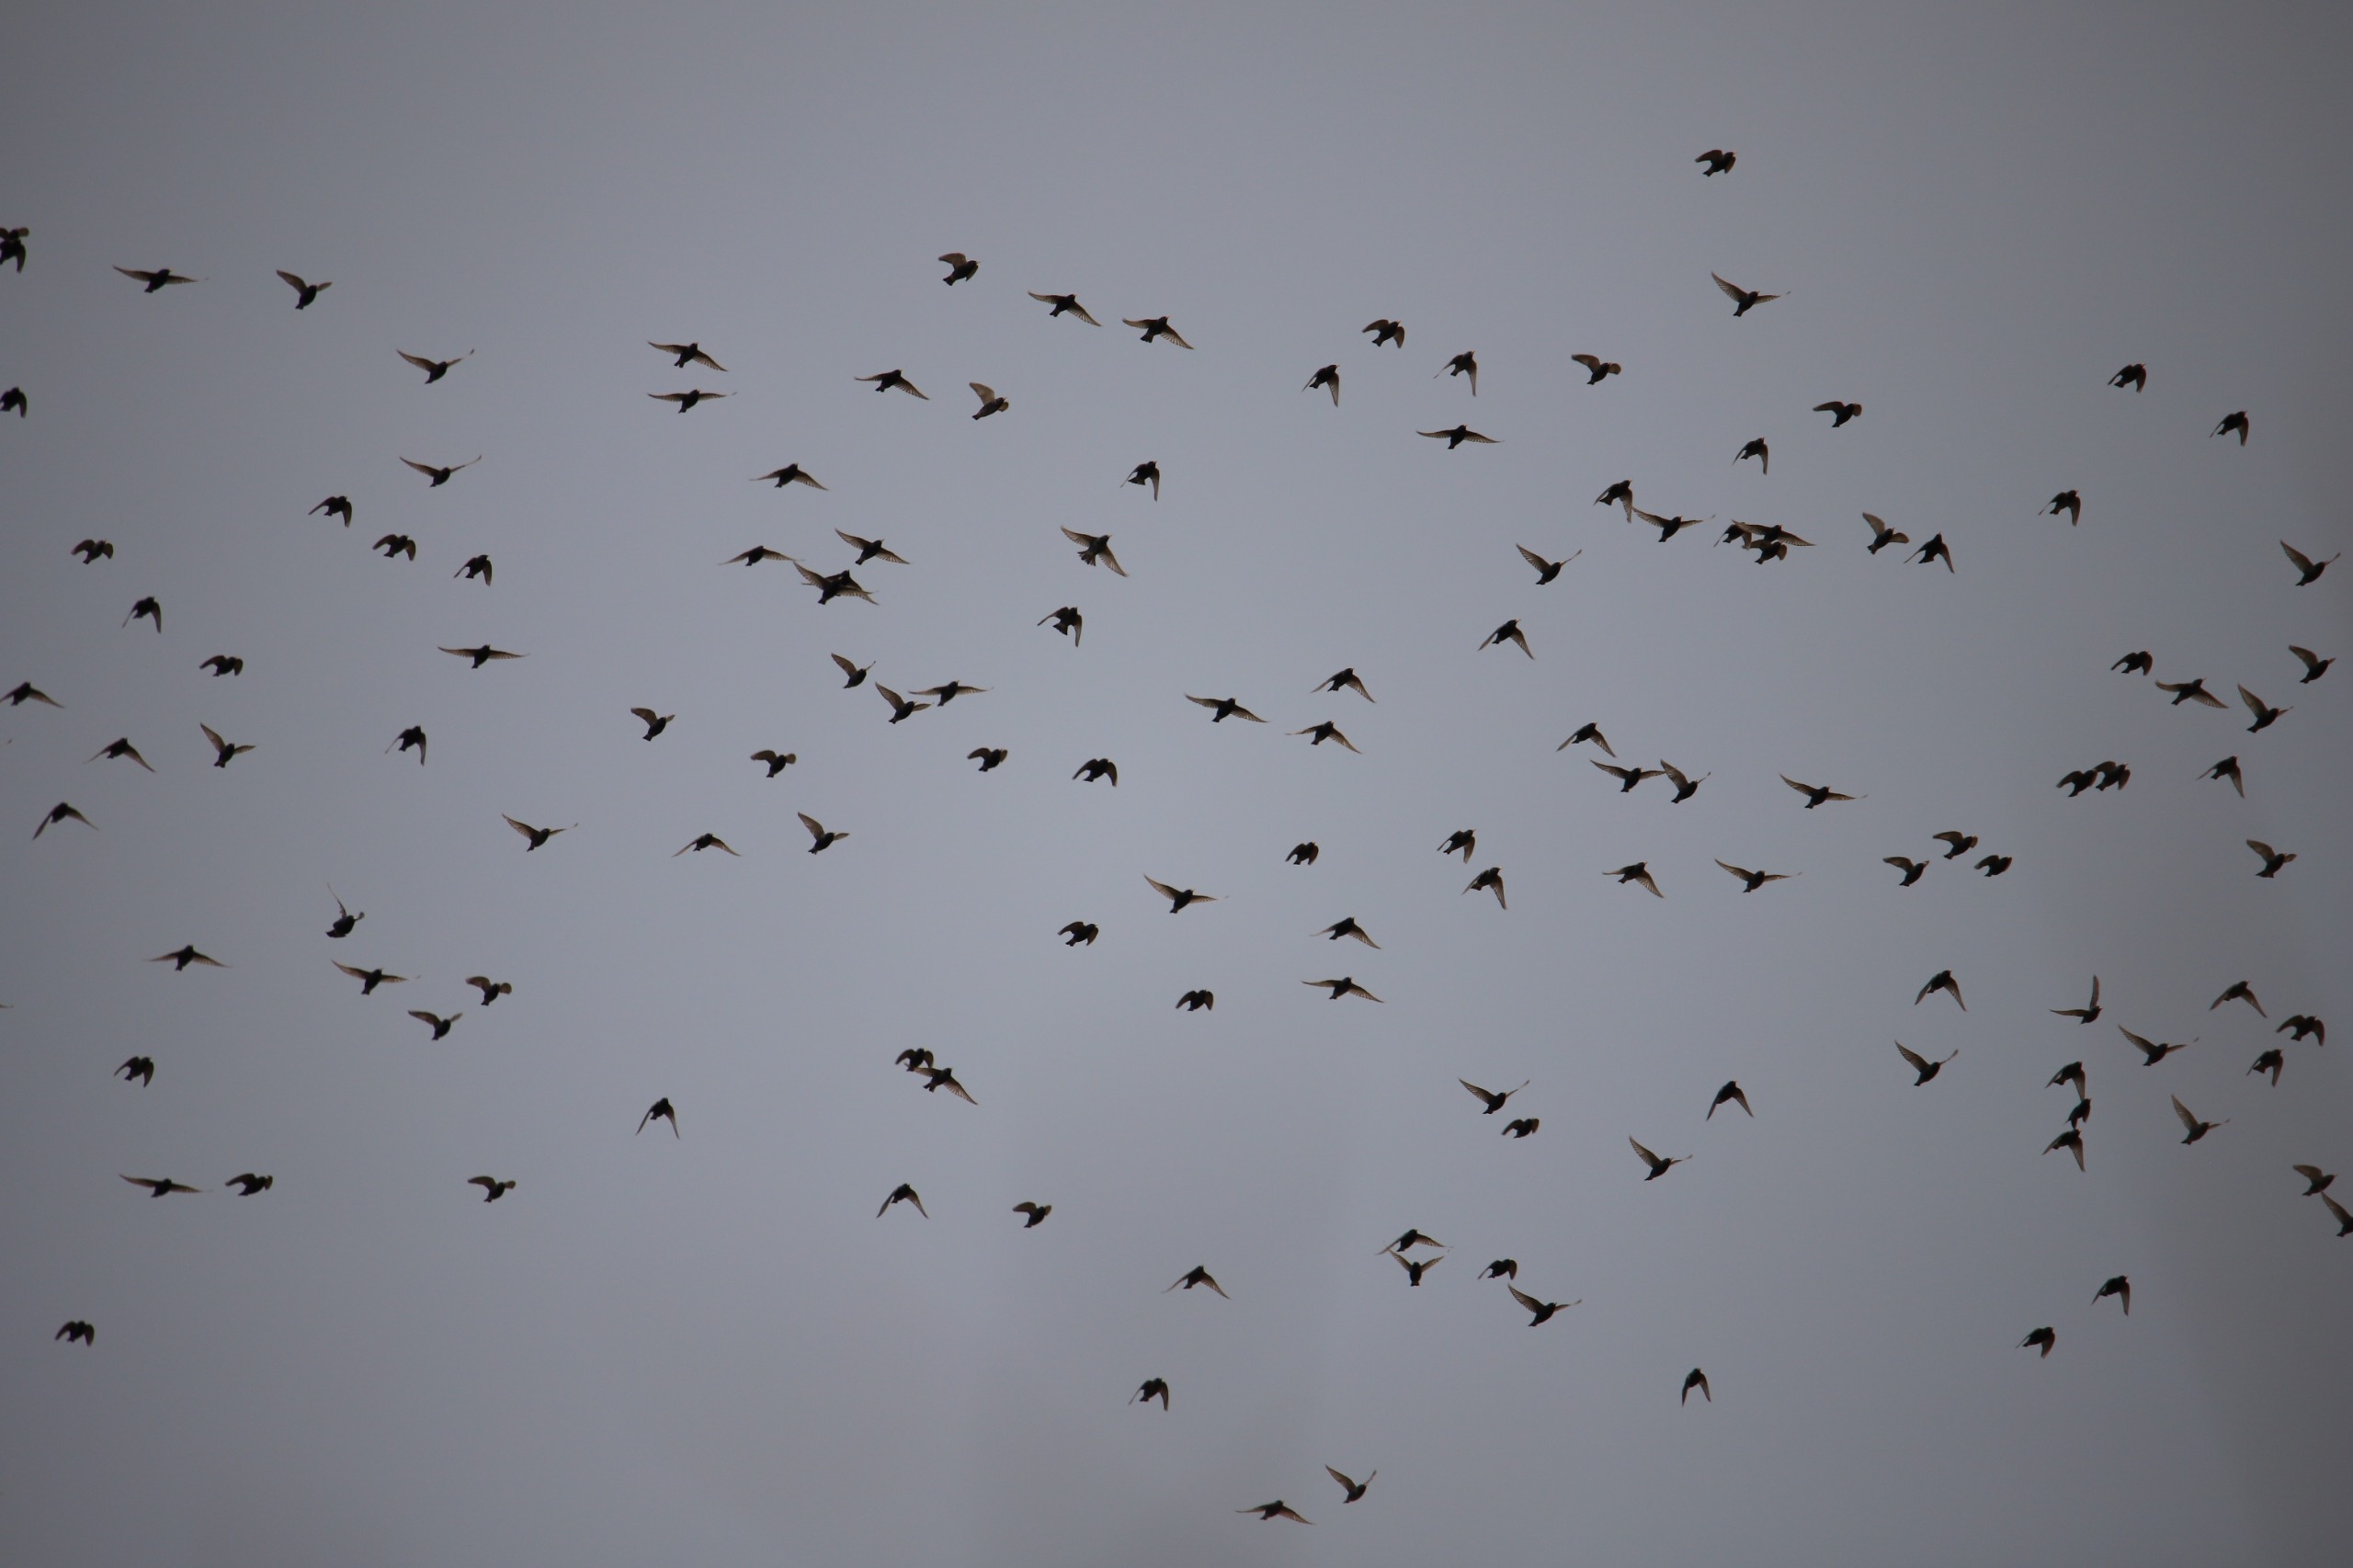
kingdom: Animalia
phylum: Chordata
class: Aves
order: Passeriformes
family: Sturnidae
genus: Sturnus
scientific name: Sturnus vulgaris
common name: Stær
